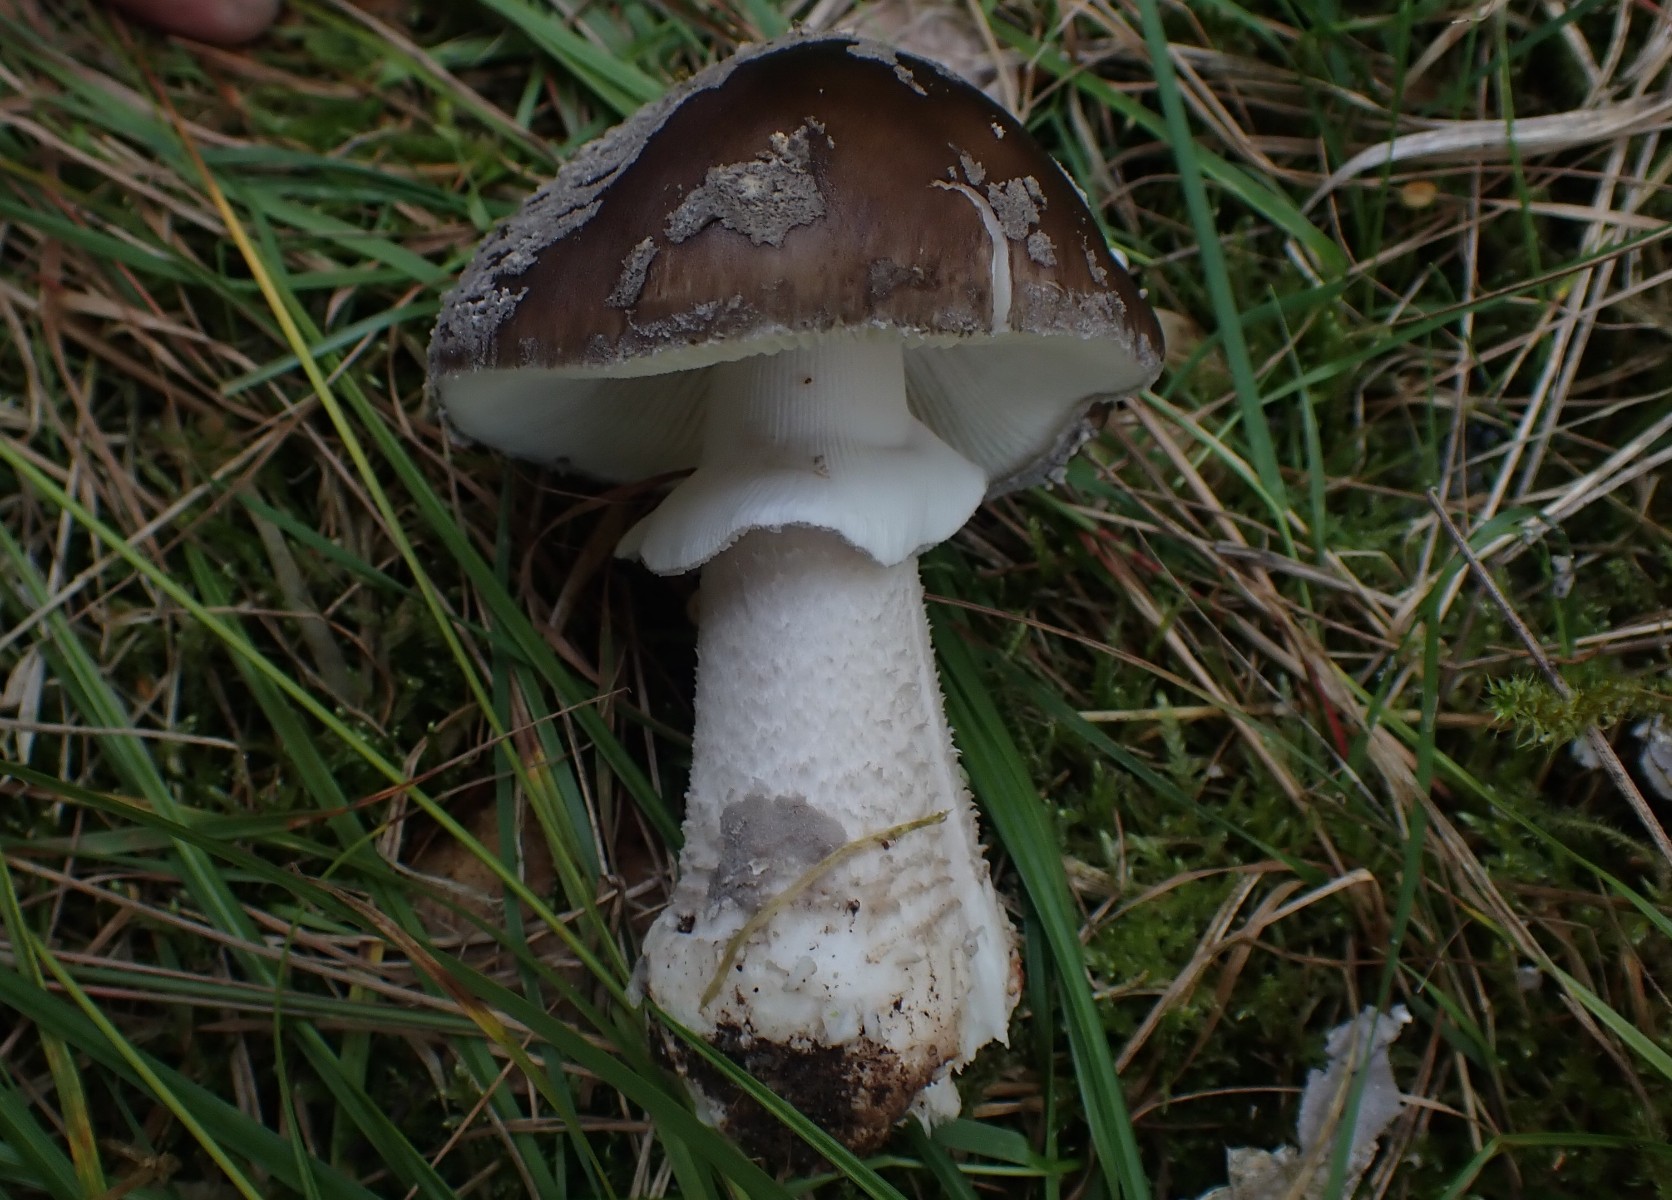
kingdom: Fungi
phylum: Basidiomycota
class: Agaricomycetes
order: Agaricales
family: Amanitaceae
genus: Amanita
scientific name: Amanita
